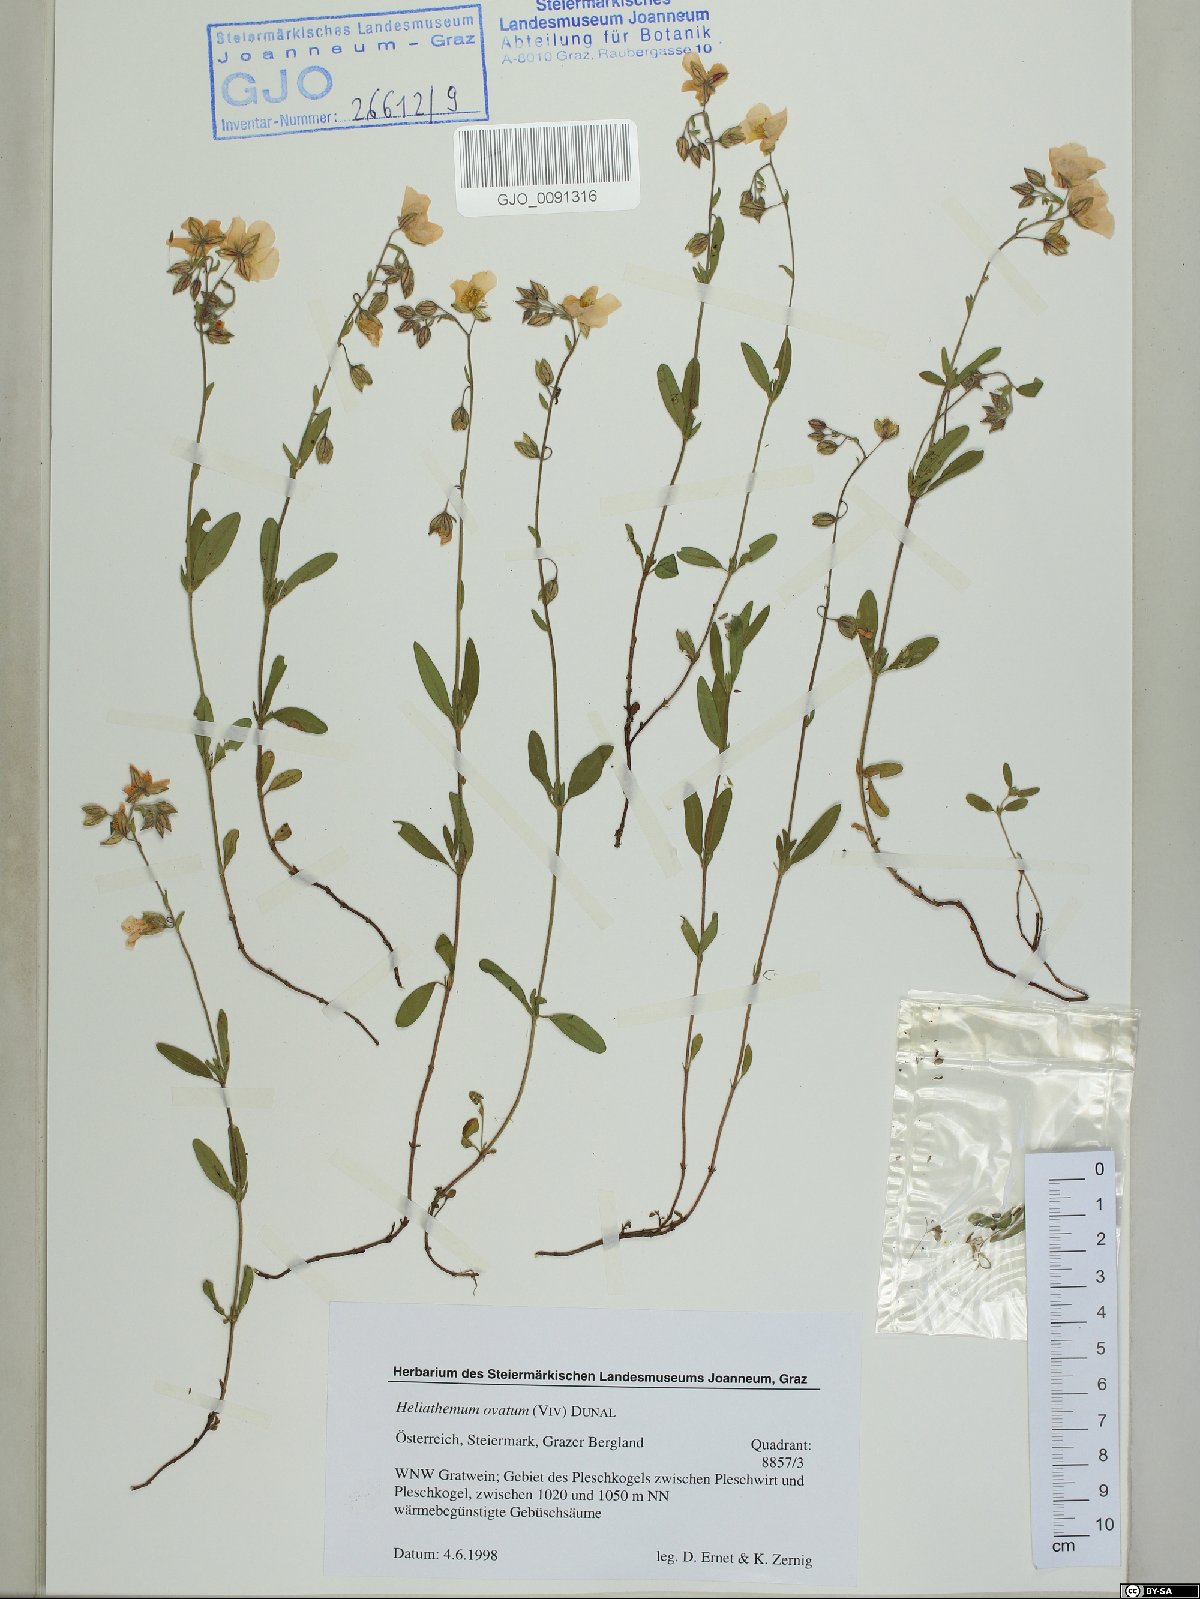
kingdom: Plantae
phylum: Tracheophyta
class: Magnoliopsida
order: Malvales
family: Cistaceae
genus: Helianthemum
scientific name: Helianthemum nummularium
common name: Common rock-rose
